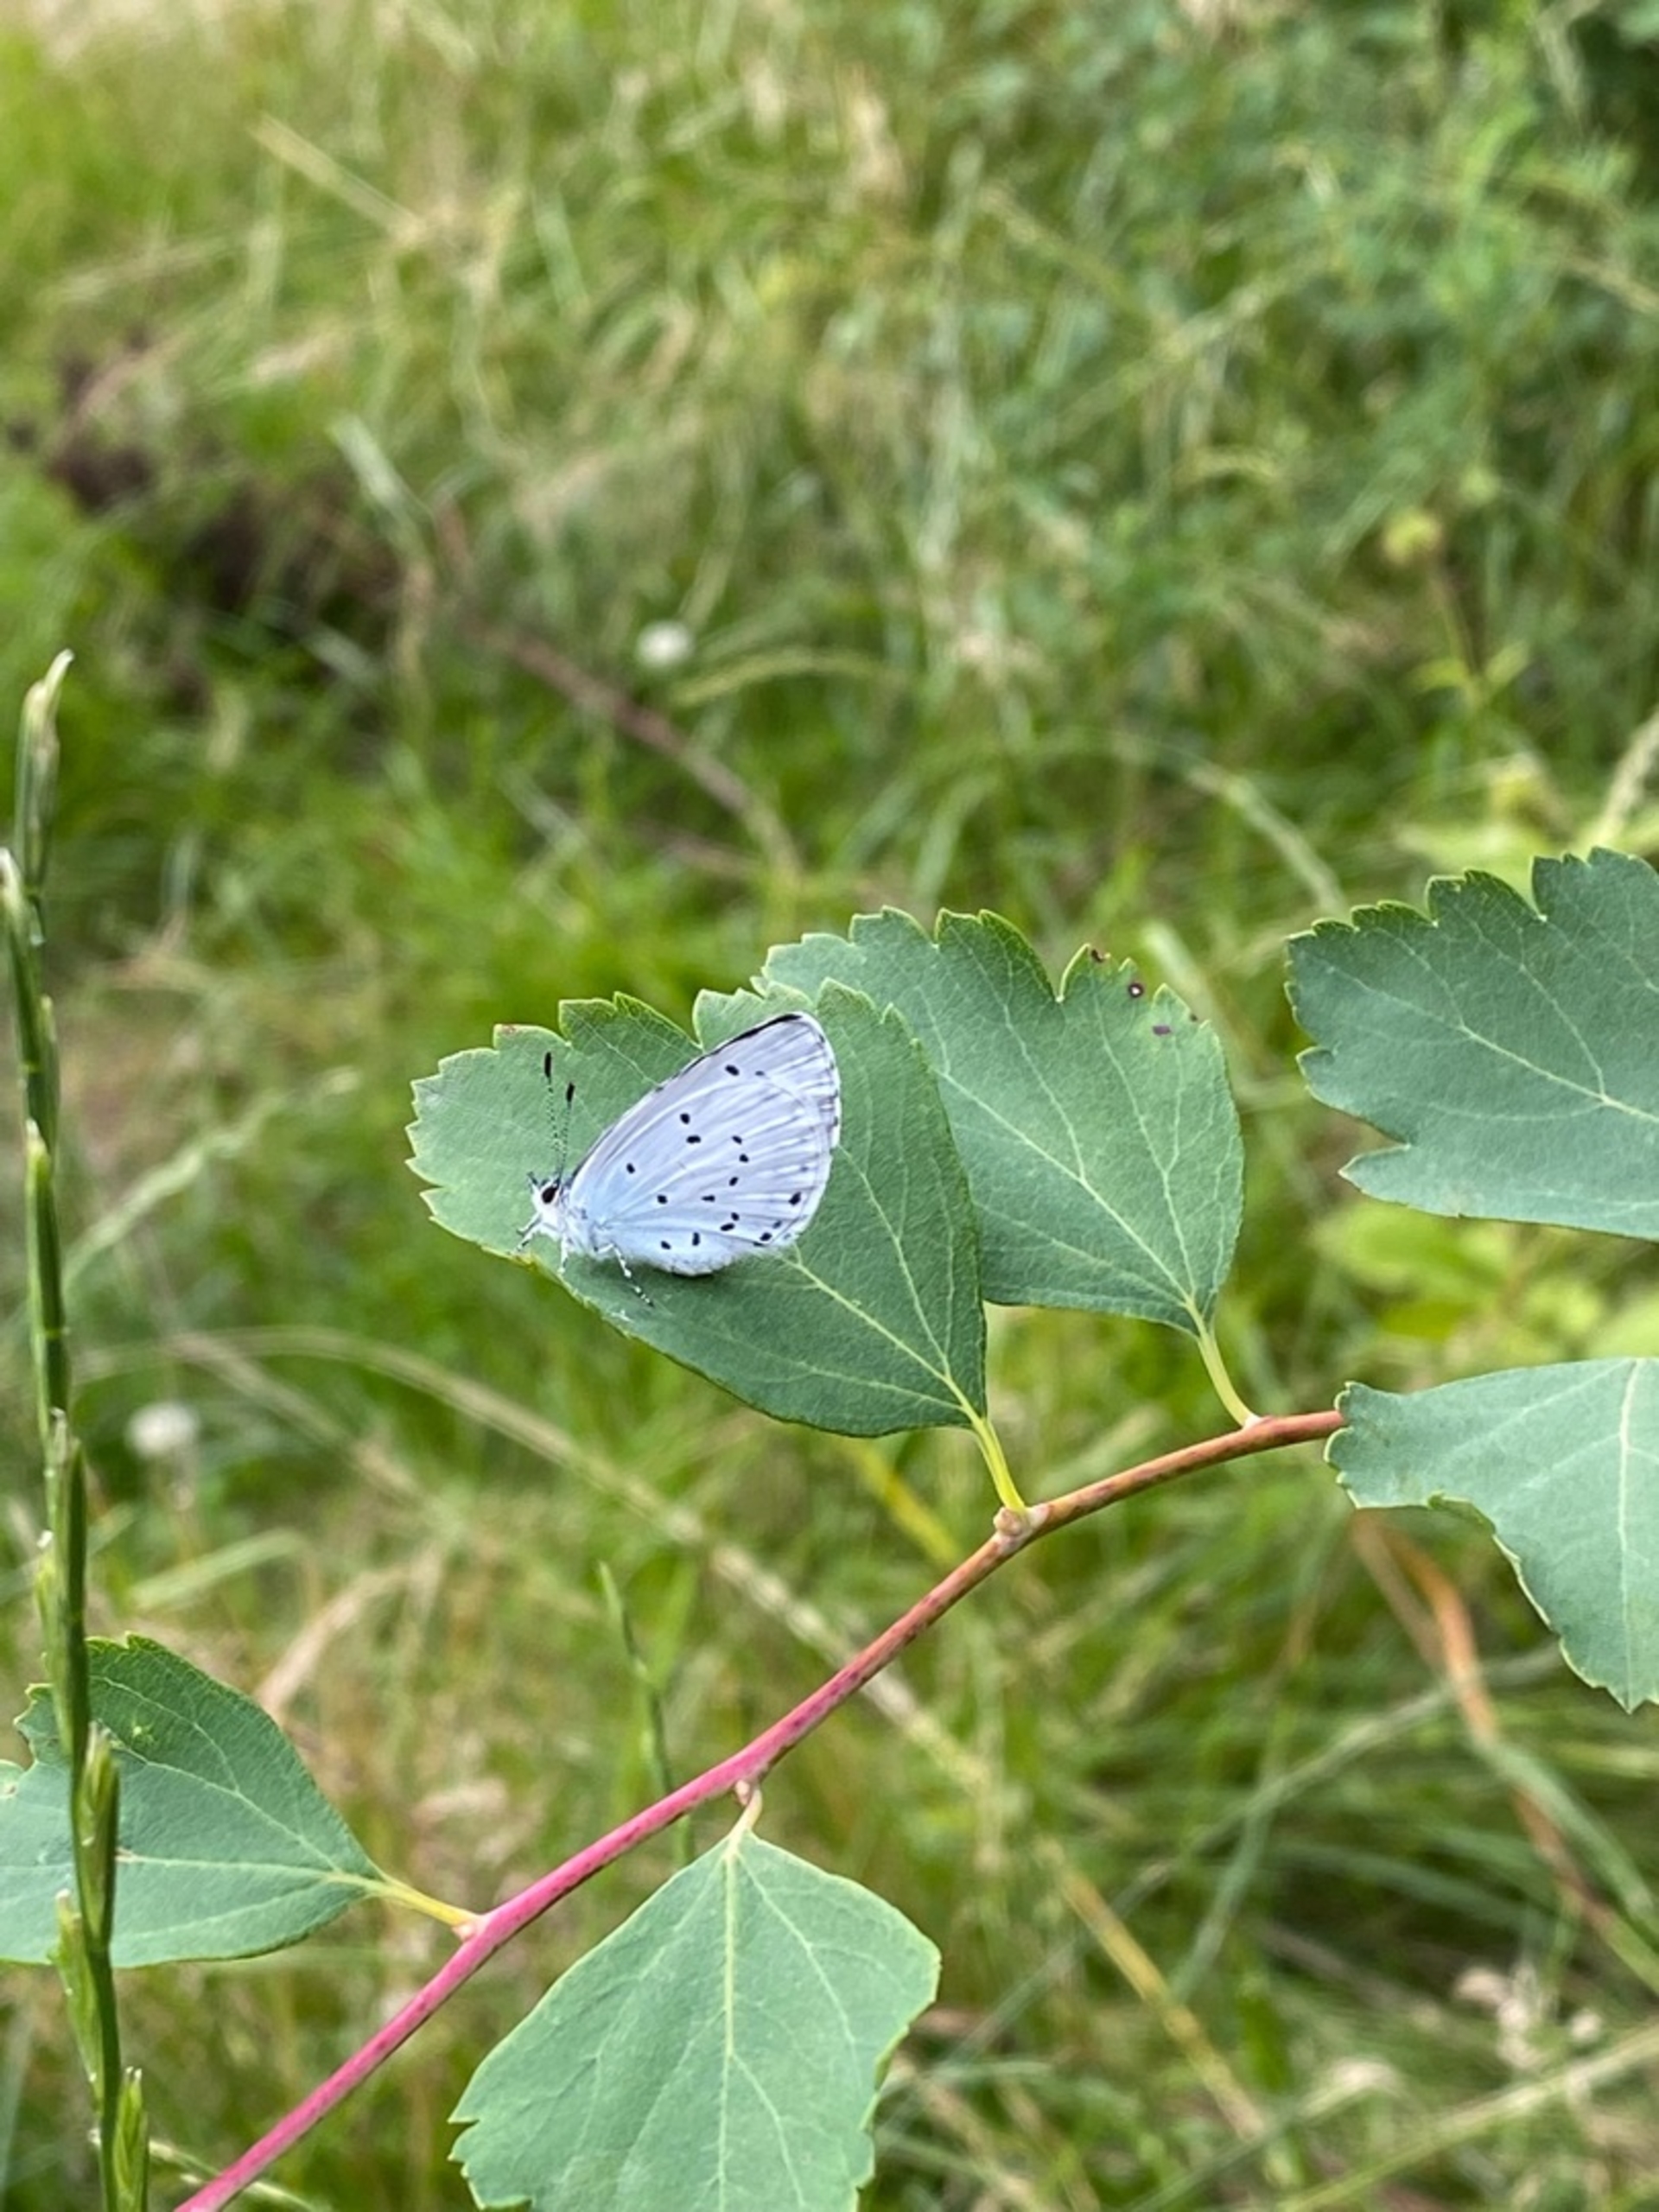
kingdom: Animalia
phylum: Arthropoda
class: Insecta
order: Lepidoptera
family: Lycaenidae
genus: Celastrina
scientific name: Celastrina argiolus
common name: Skovblåfugl
